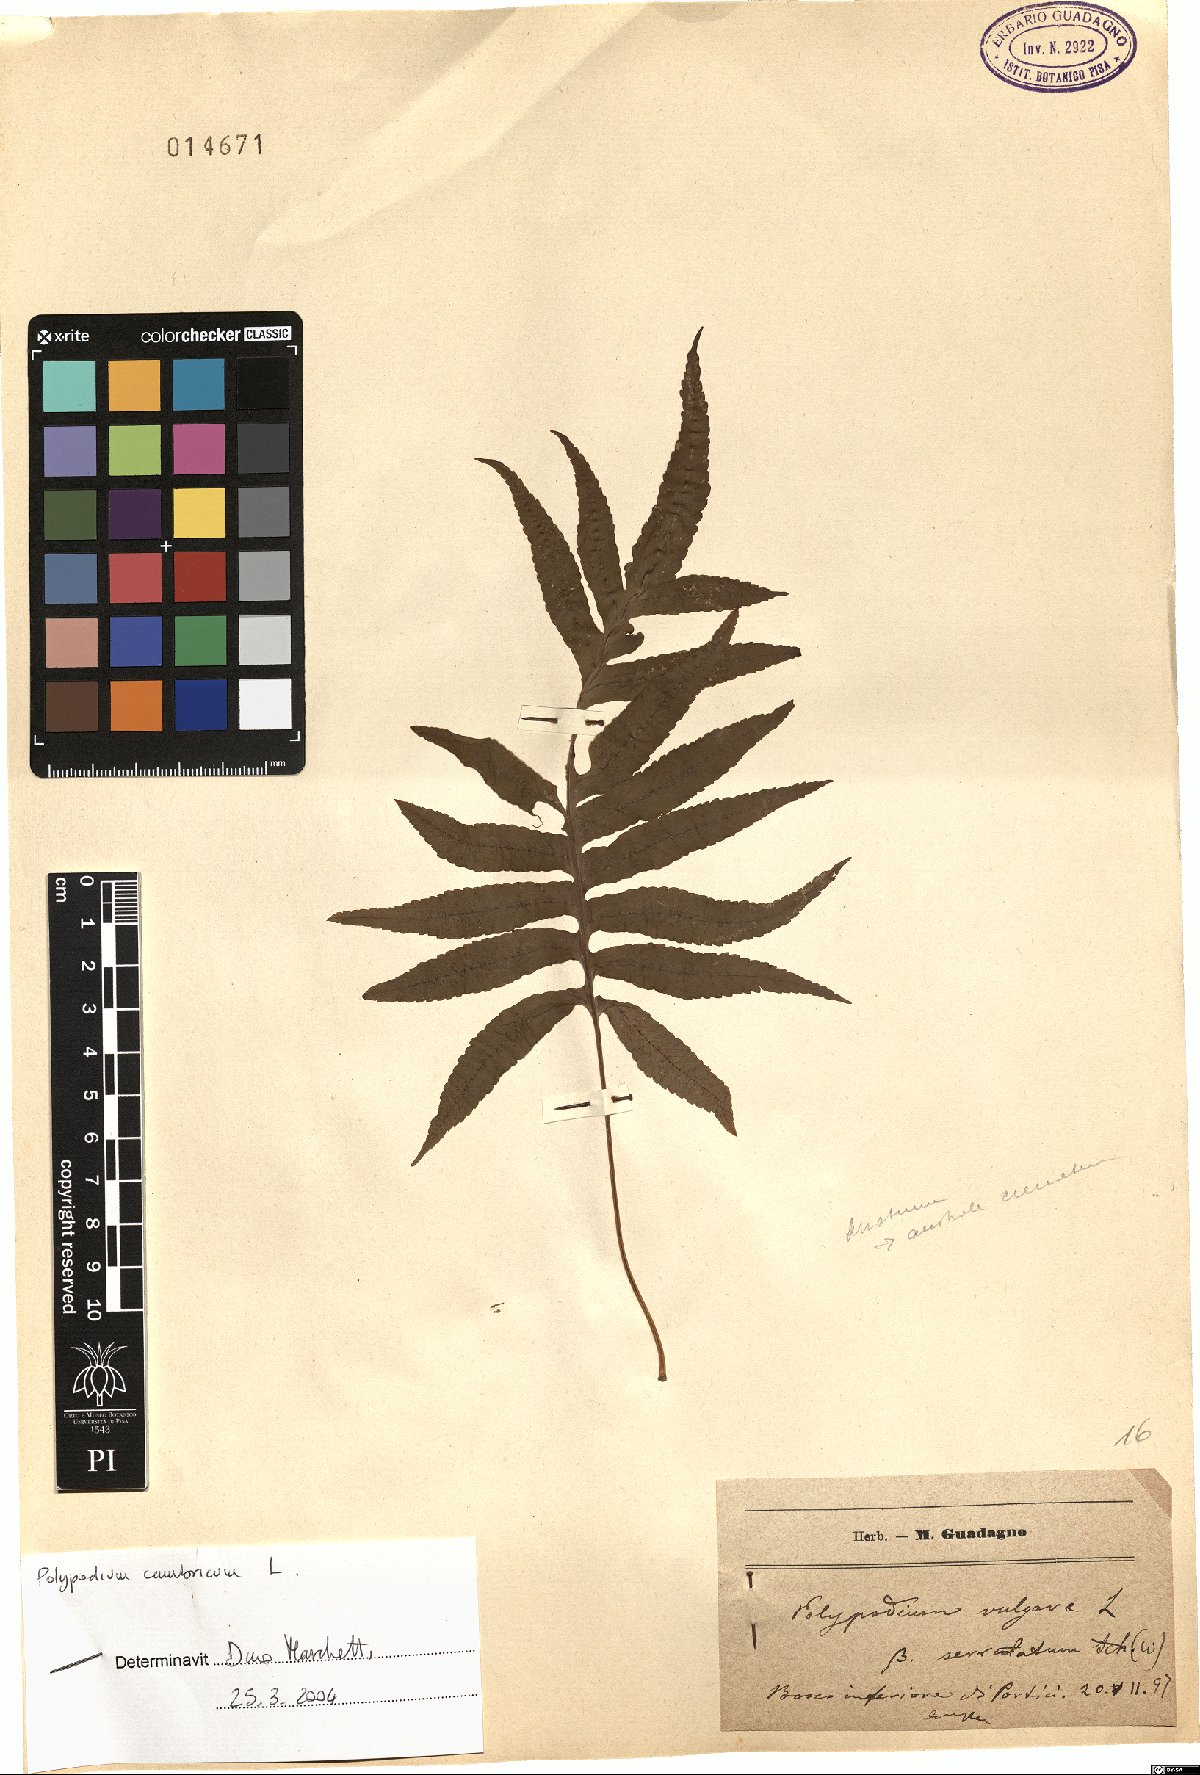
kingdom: Plantae
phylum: Tracheophyta
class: Polypodiopsida
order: Polypodiales
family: Polypodiaceae
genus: Polypodium
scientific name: Polypodium cambricum
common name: Southern polypody
